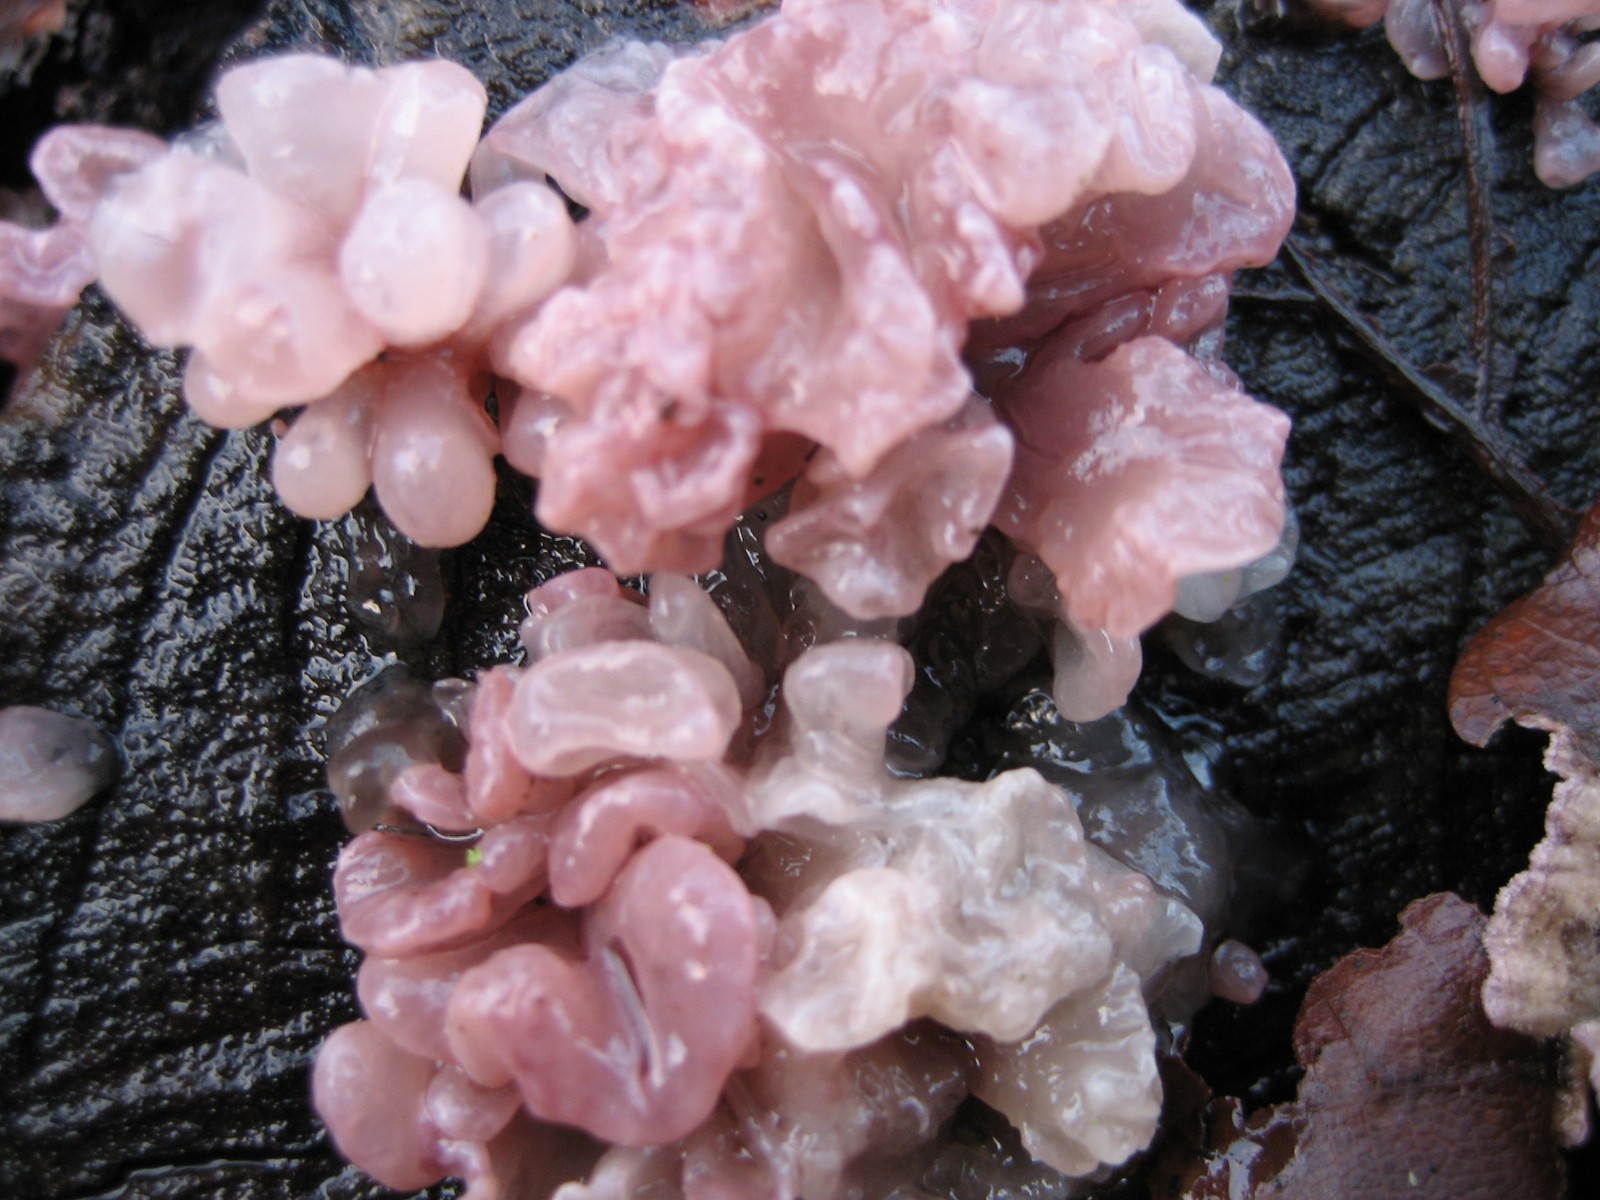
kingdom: Fungi
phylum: Ascomycota
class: Leotiomycetes
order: Helotiales
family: Gelatinodiscaceae
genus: Ascocoryne
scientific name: Ascocoryne sarcoides
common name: rødlilla sejskive
